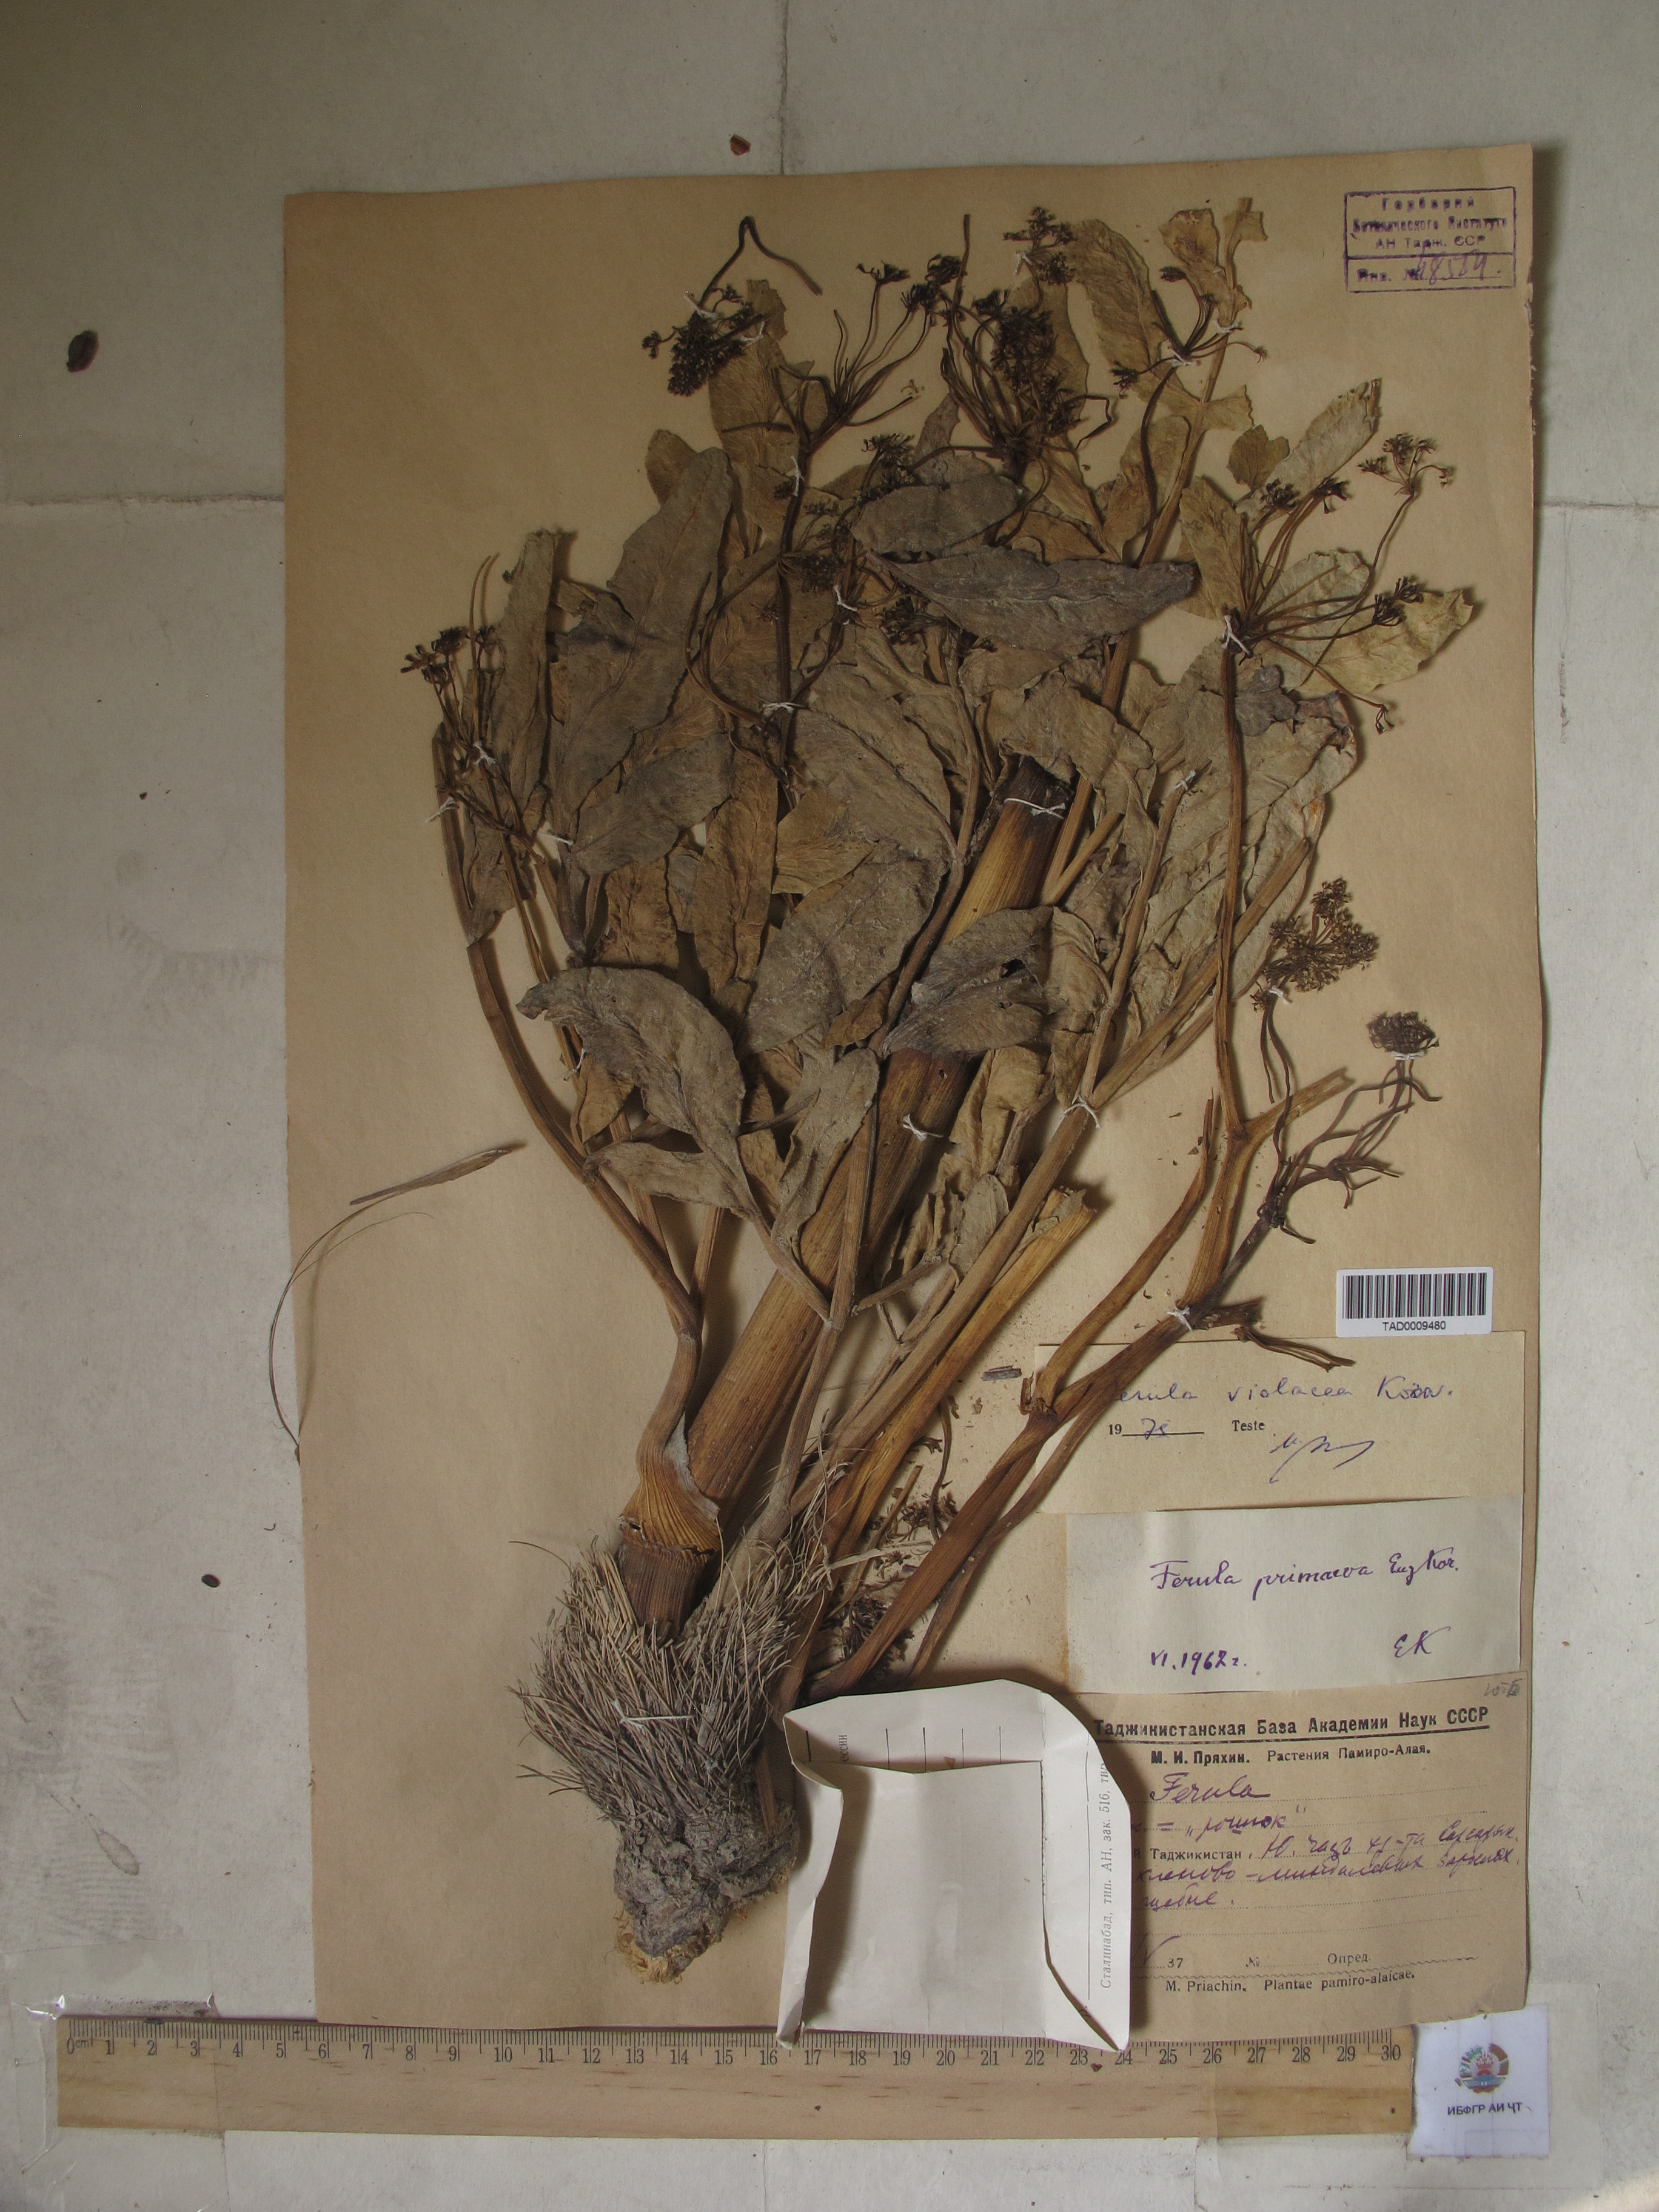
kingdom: Plantae
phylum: Tracheophyta
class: Magnoliopsida
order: Apiales
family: Apiaceae
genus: Ferula
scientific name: Ferula violacea
